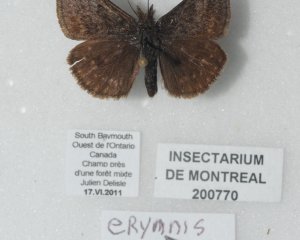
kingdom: Animalia
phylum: Arthropoda
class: Insecta
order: Lepidoptera
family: Hesperiidae
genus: Erynnis
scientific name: Erynnis icelus
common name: Dreamy Duskywing
